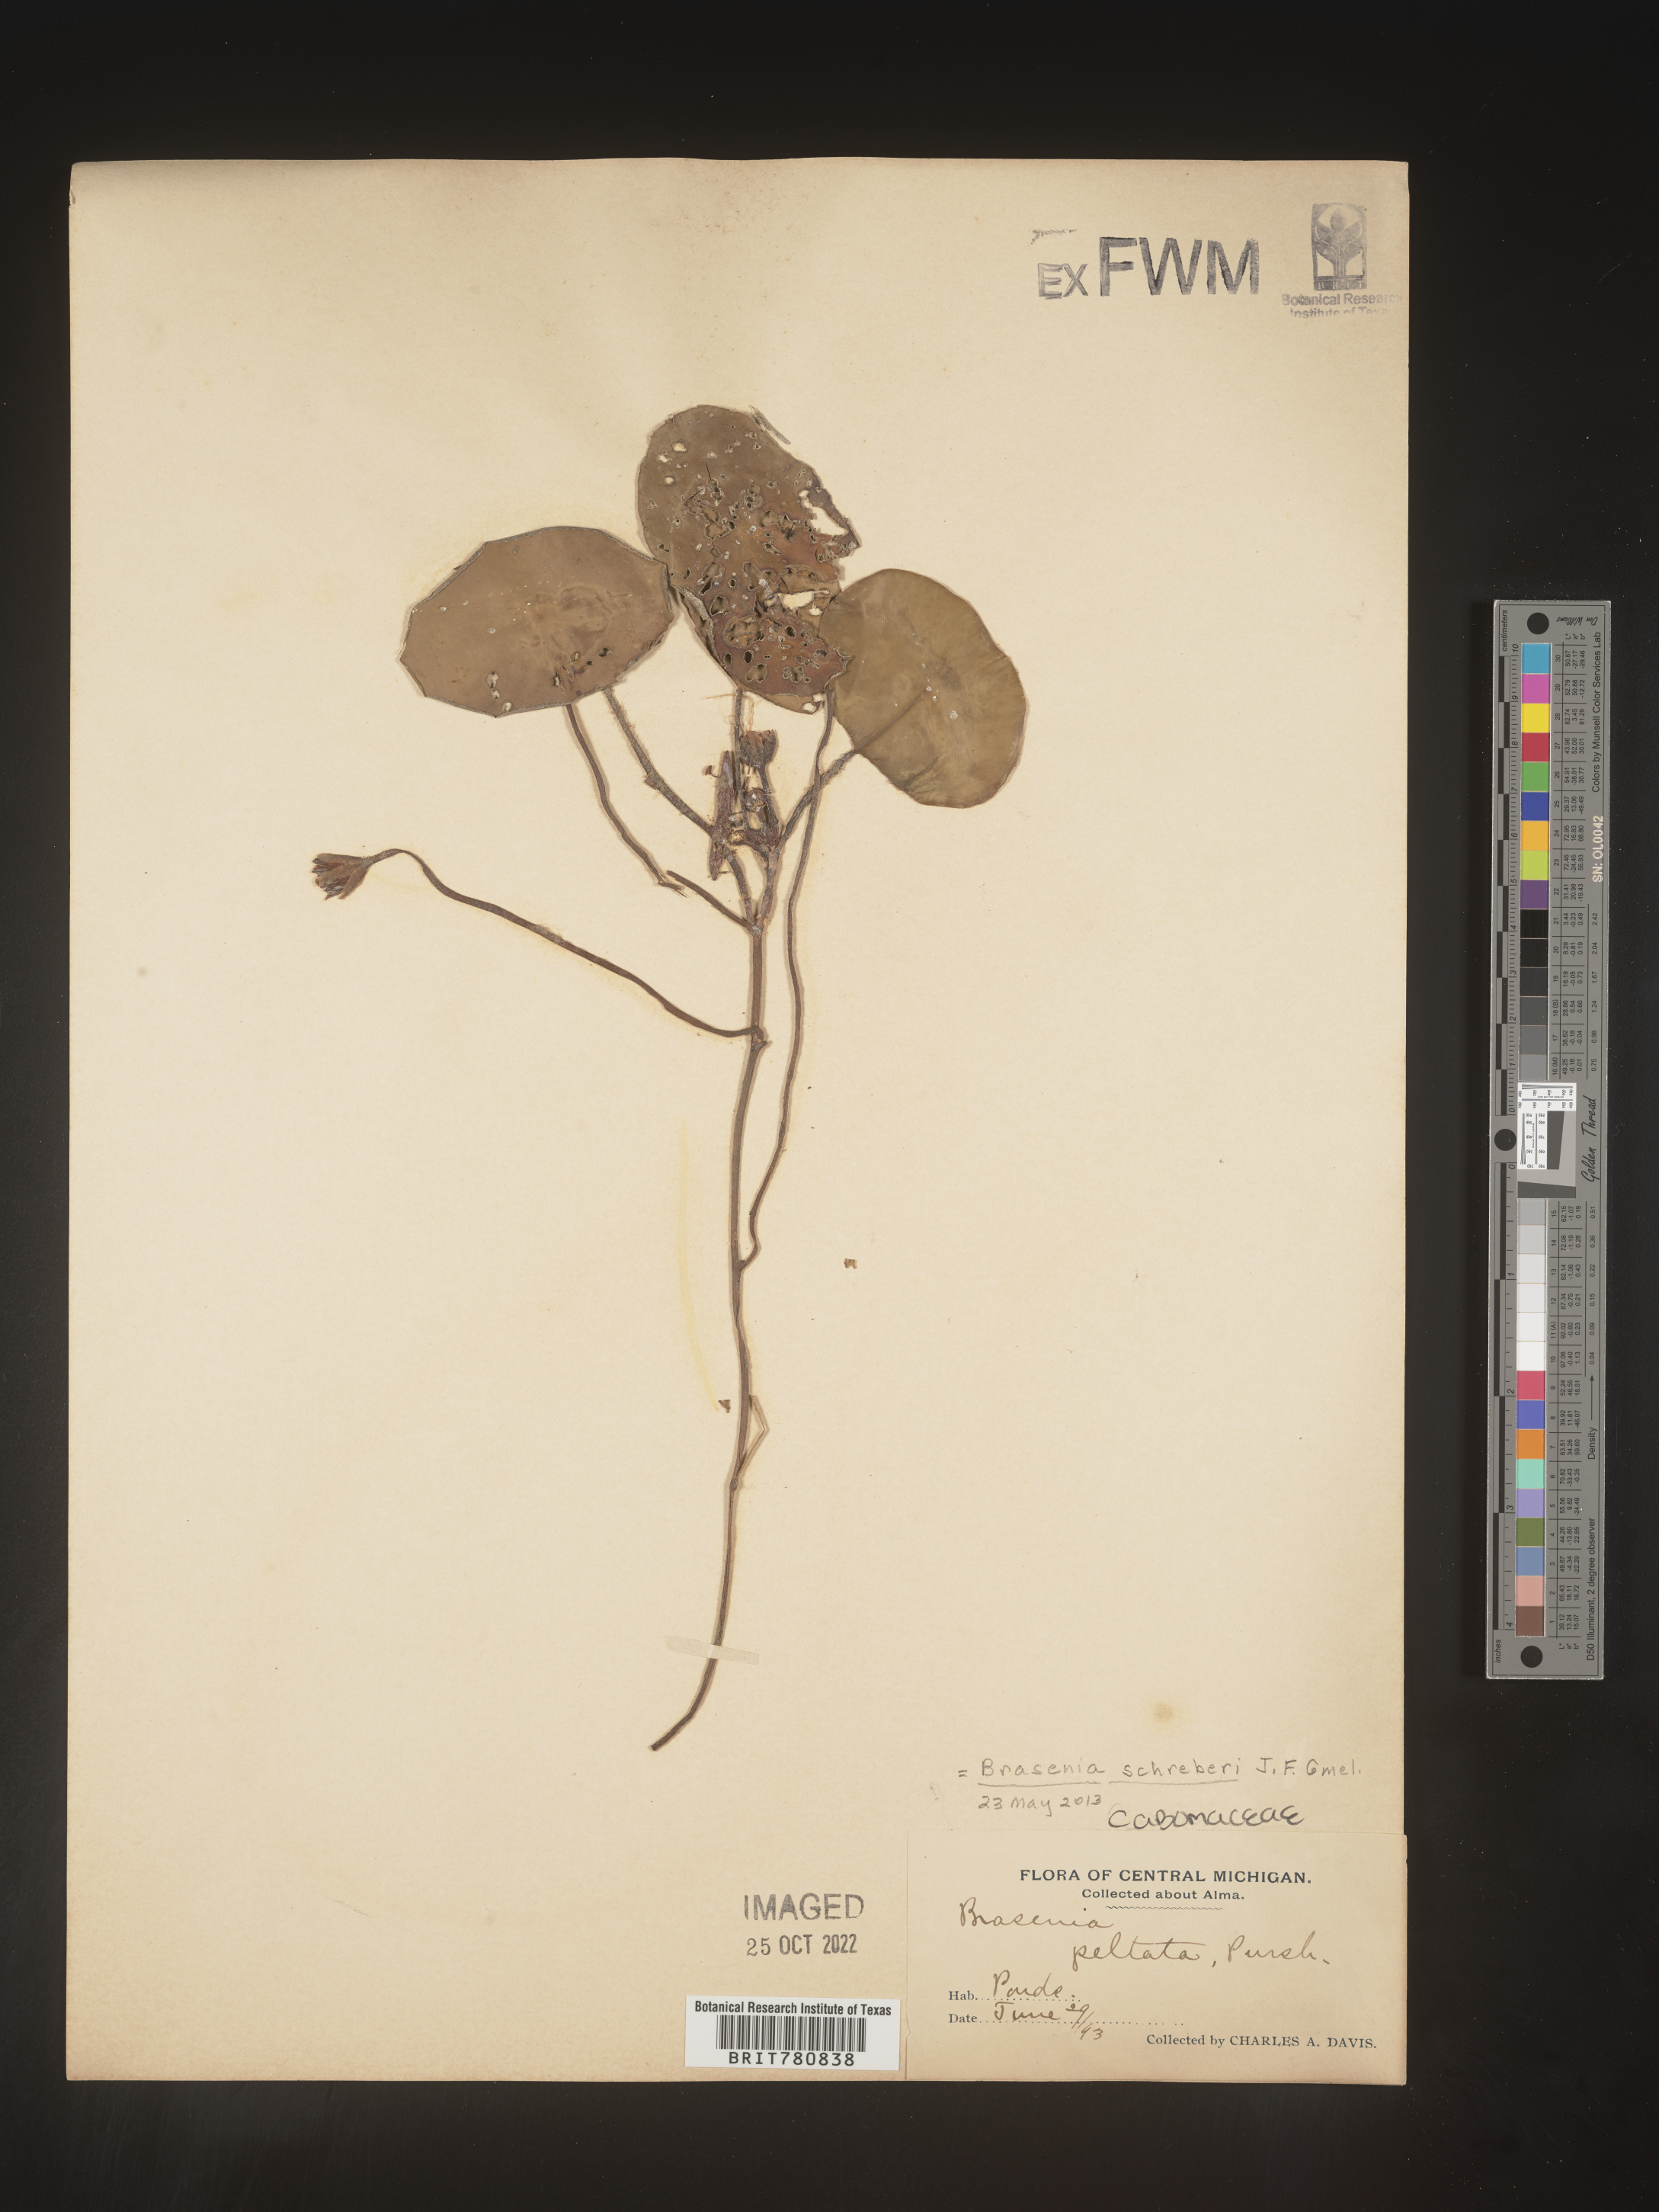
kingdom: Plantae
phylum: Tracheophyta
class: Magnoliopsida
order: Nymphaeales
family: Cabombaceae
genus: Brasenia
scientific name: Brasenia schreberi
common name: Water-shield
